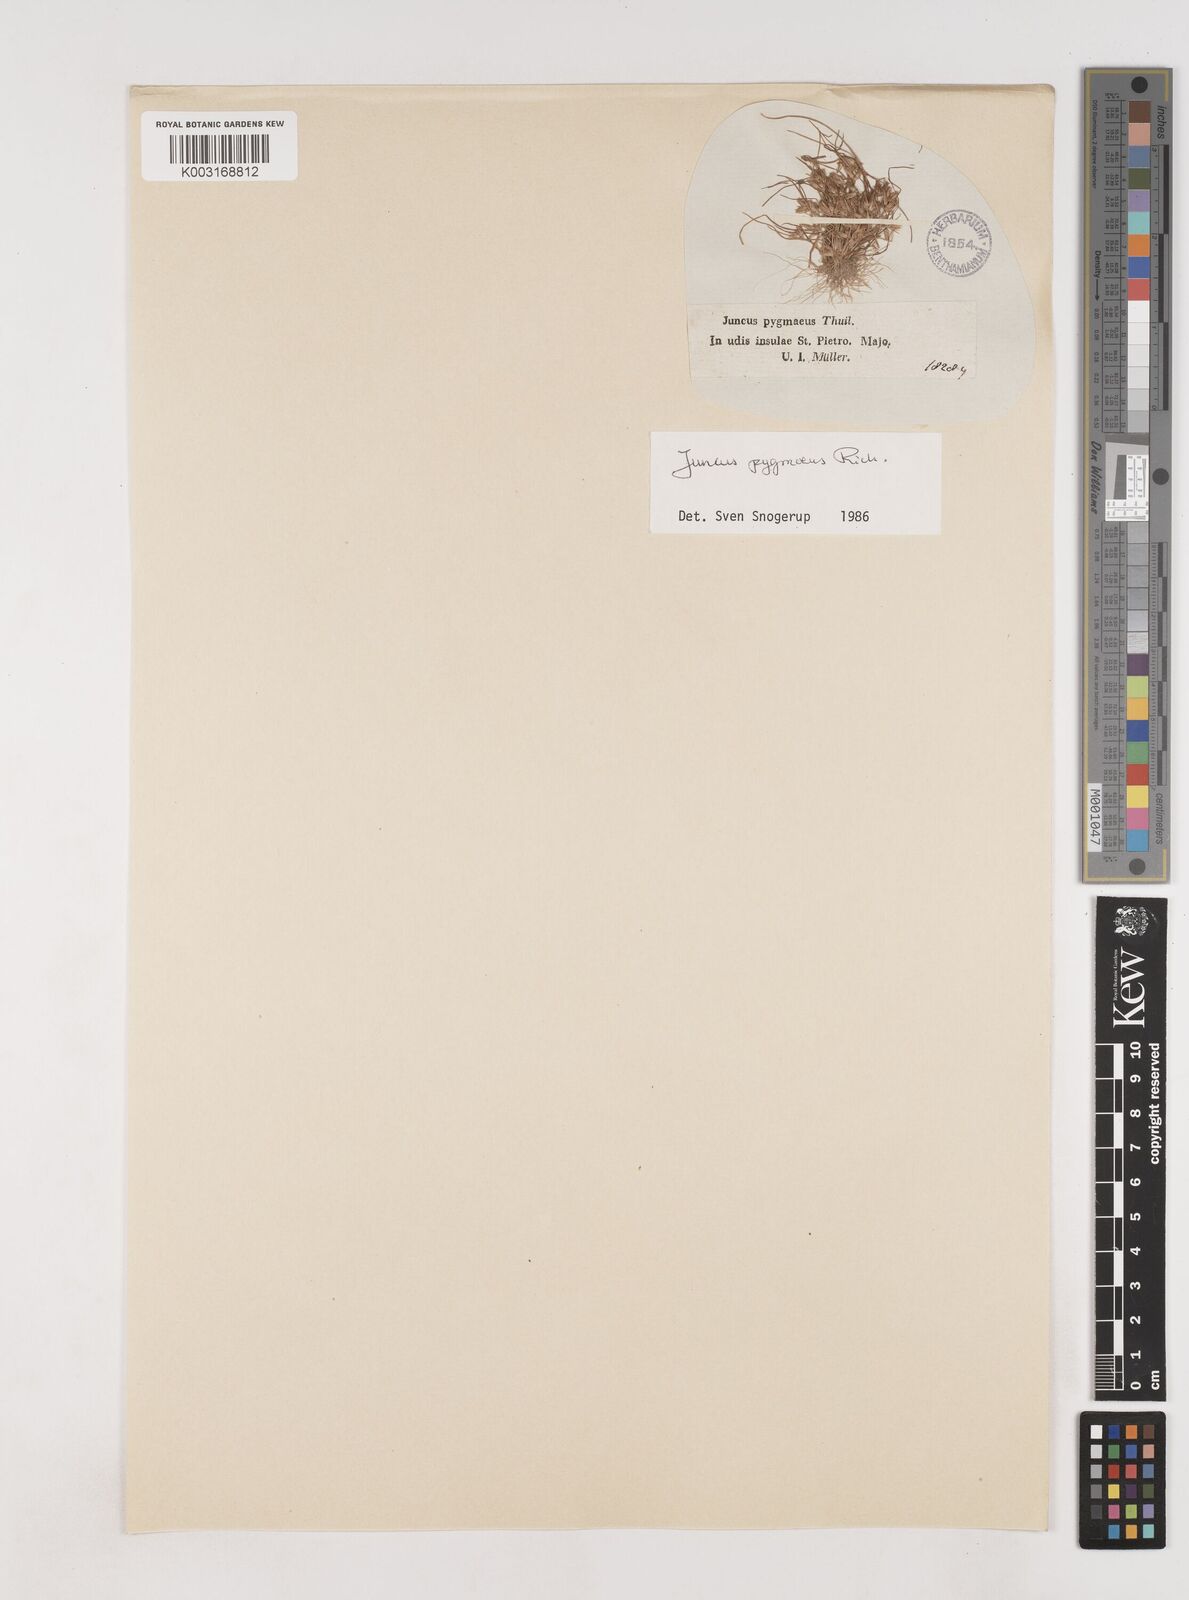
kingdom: Plantae
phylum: Tracheophyta
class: Liliopsida
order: Poales
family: Juncaceae
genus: Juncus
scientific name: Juncus pygmaeus
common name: Pigmy rush
